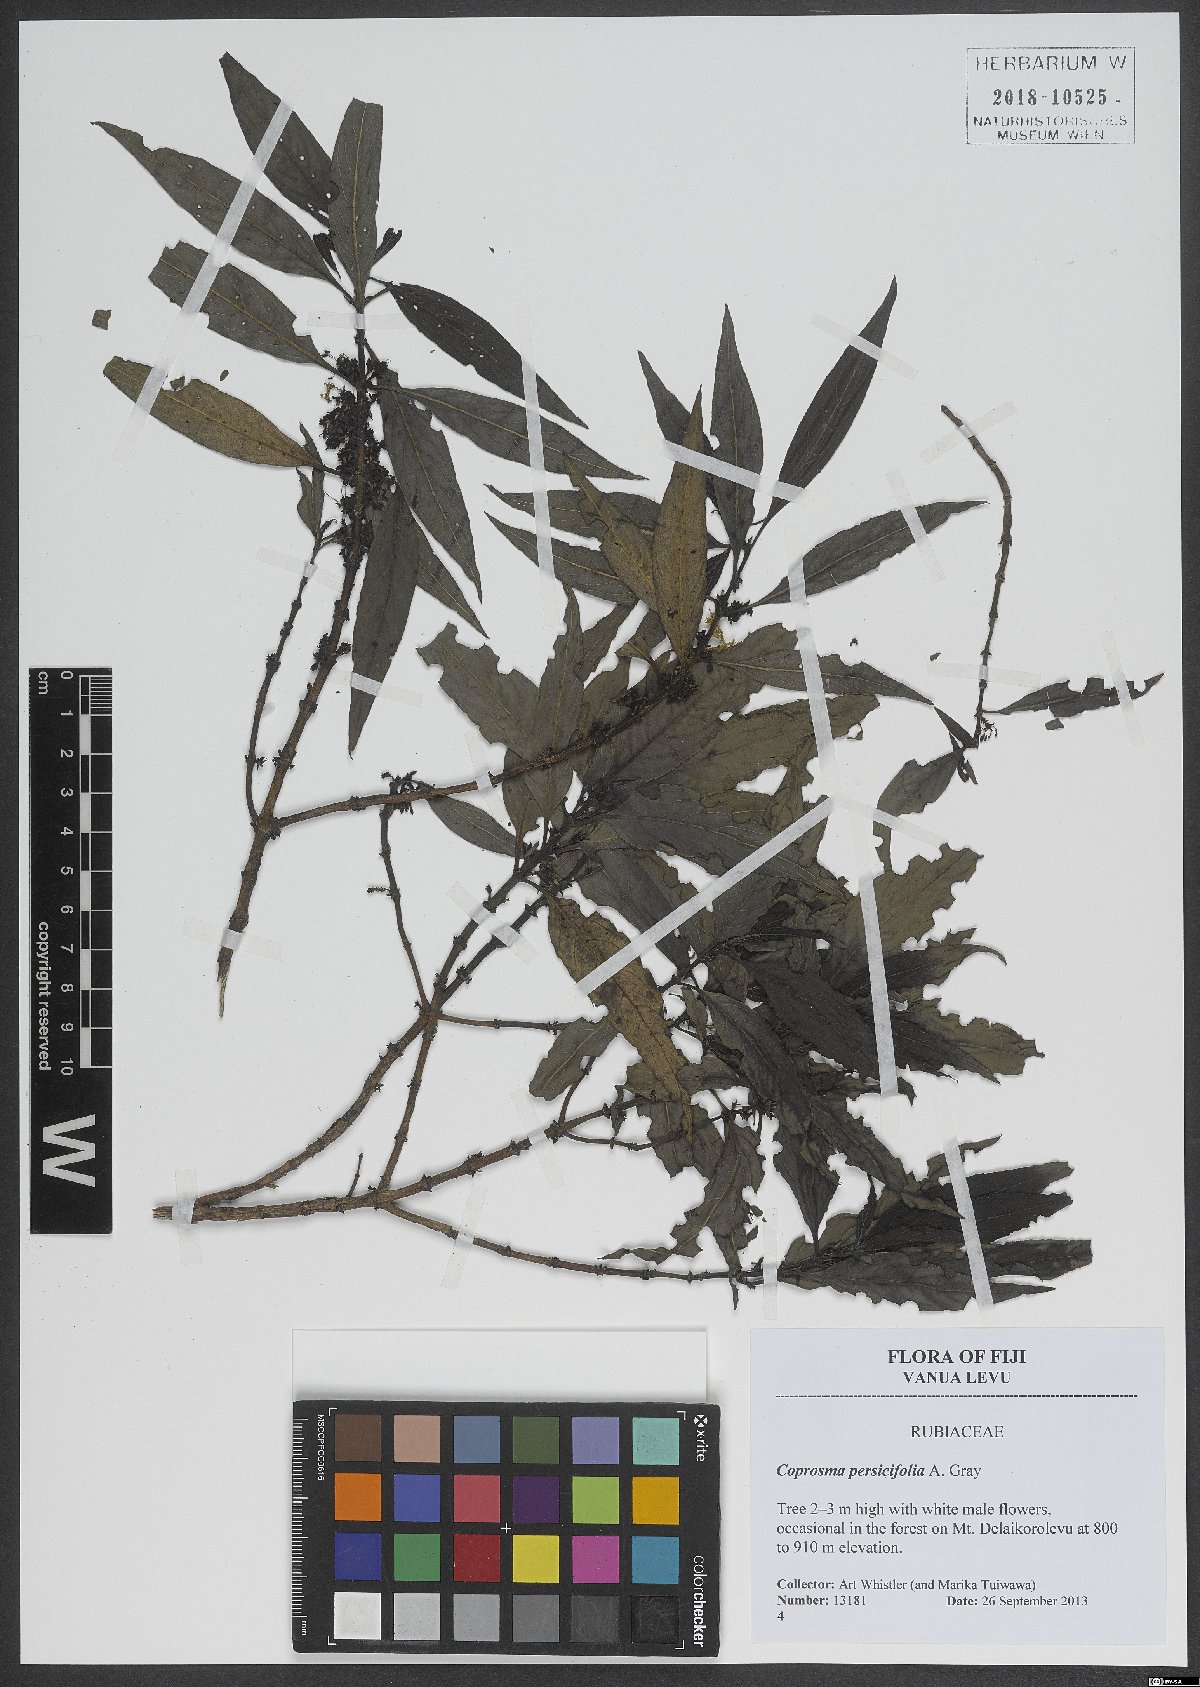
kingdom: Plantae
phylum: Tracheophyta
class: Magnoliopsida
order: Gentianales
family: Rubiaceae
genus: Coprosma
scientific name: Coprosma persicifolia
